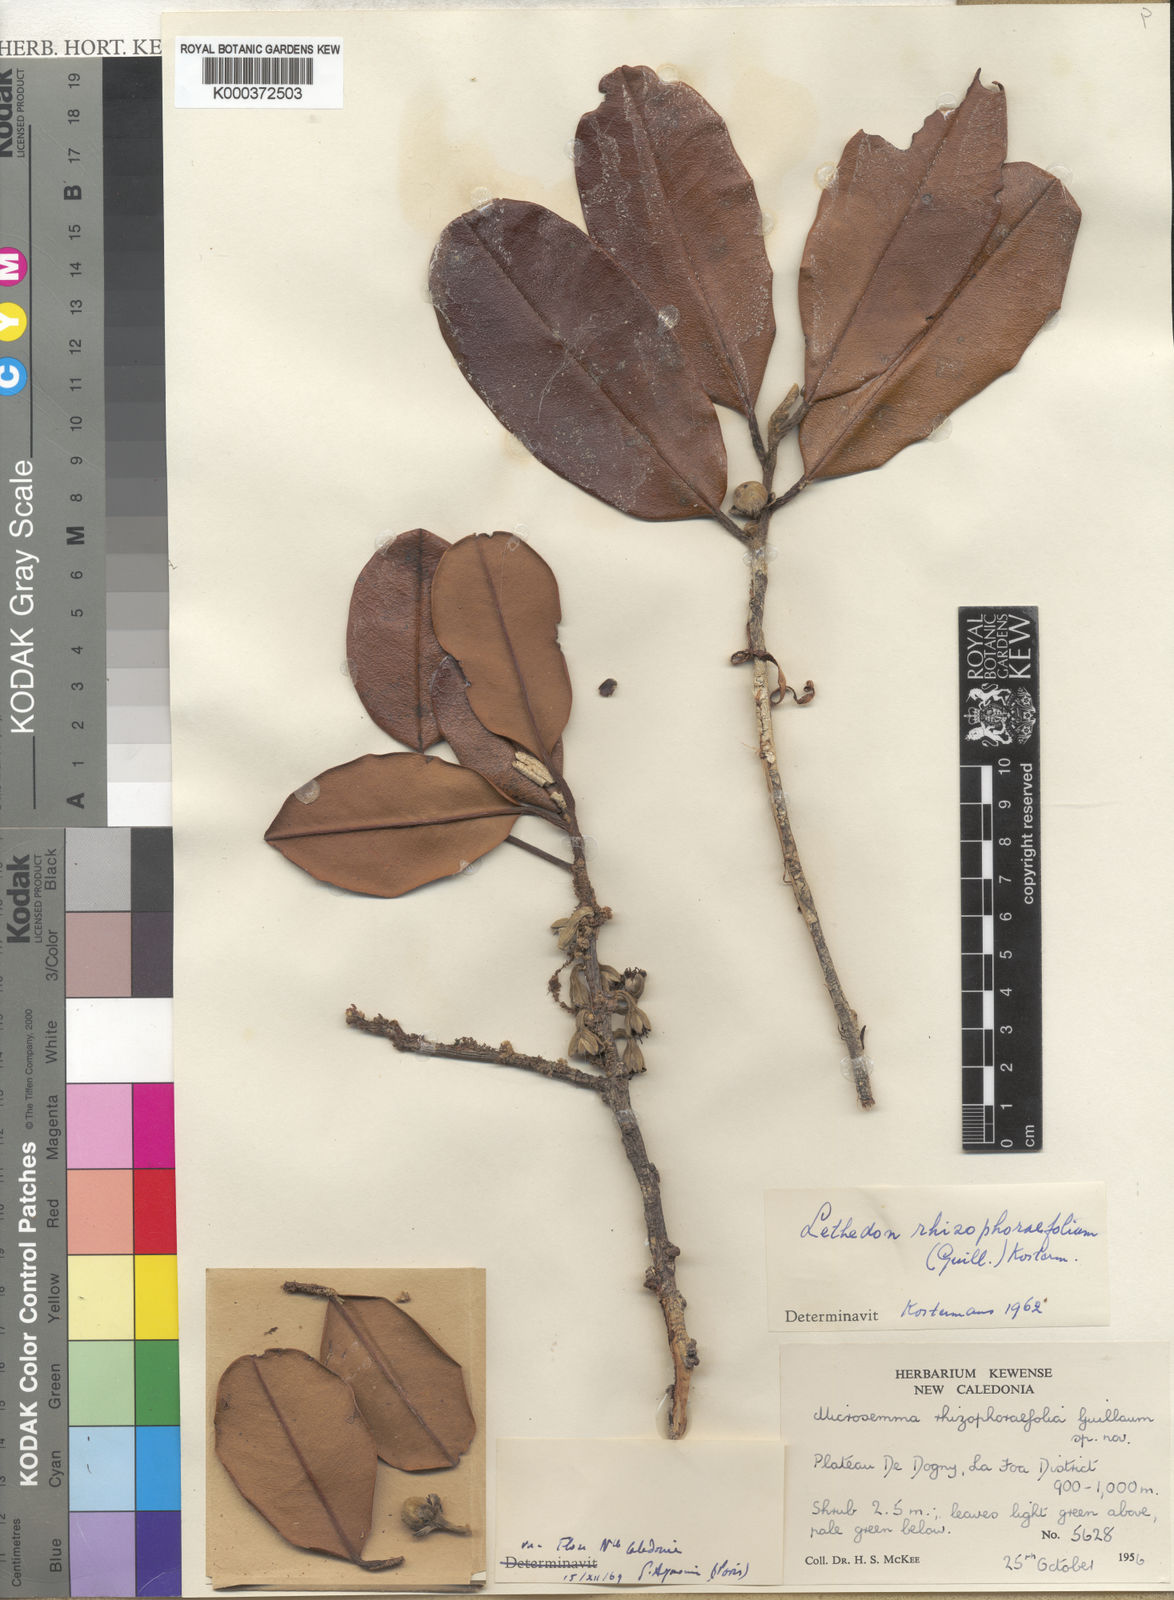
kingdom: Plantae
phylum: Tracheophyta
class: Magnoliopsida
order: Malvales
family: Thymelaeaceae
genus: Lethedon
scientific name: Lethedon
